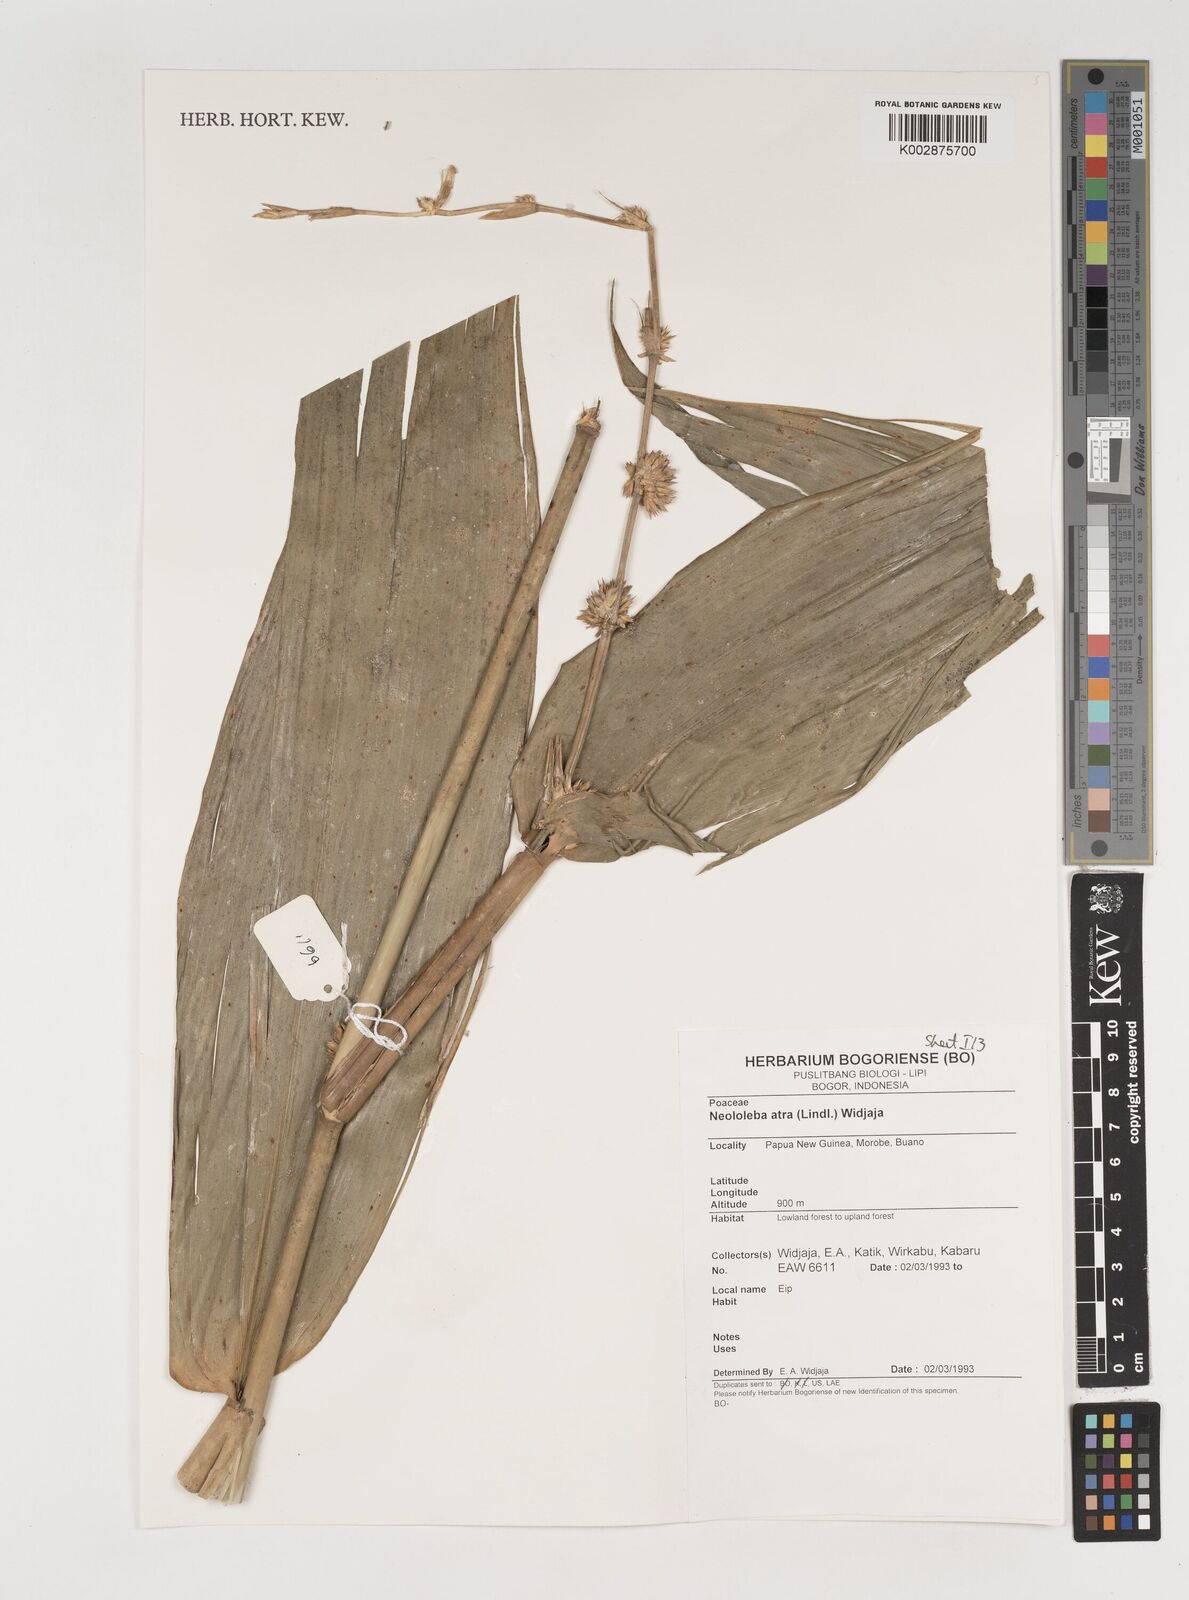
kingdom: Plantae
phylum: Tracheophyta
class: Liliopsida
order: Poales
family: Poaceae
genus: Neololeba
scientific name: Neololeba atra
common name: Cape bamboo
